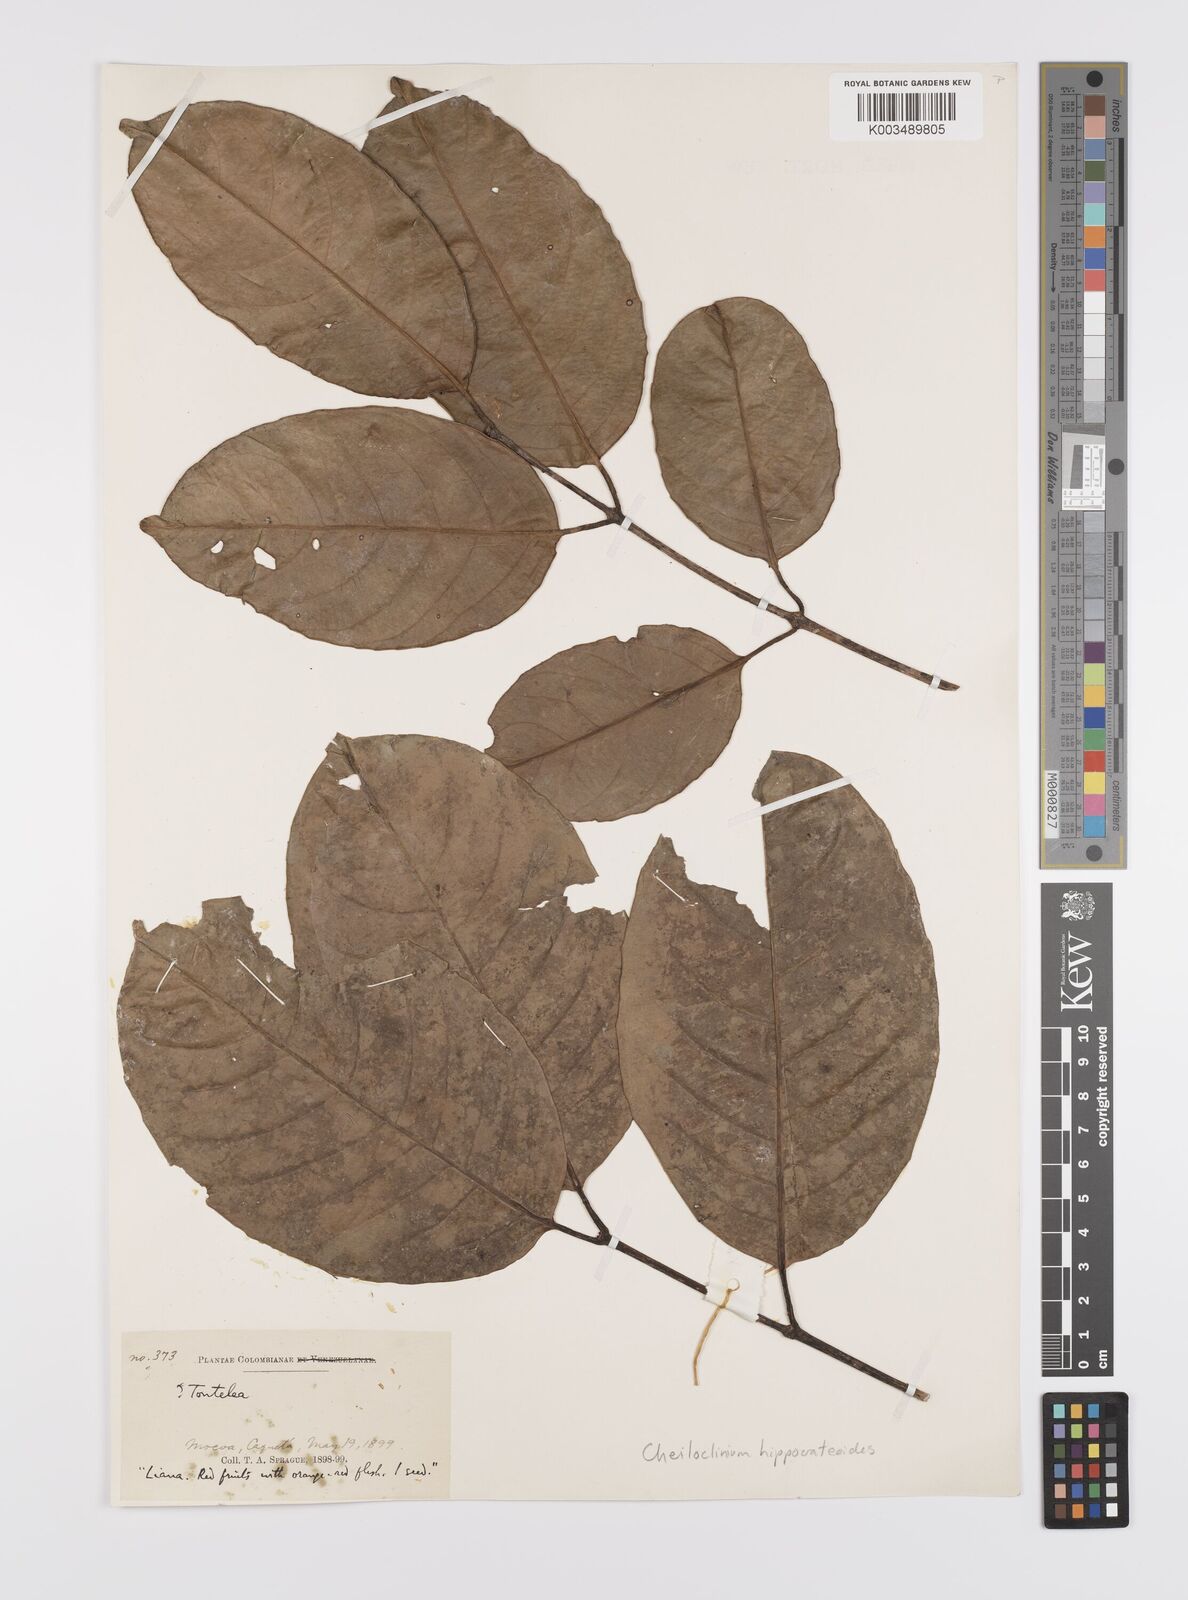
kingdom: Plantae
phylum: Tracheophyta
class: Magnoliopsida
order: Celastrales
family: Celastraceae
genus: Cheiloclinium
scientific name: Cheiloclinium hippocrateoides
